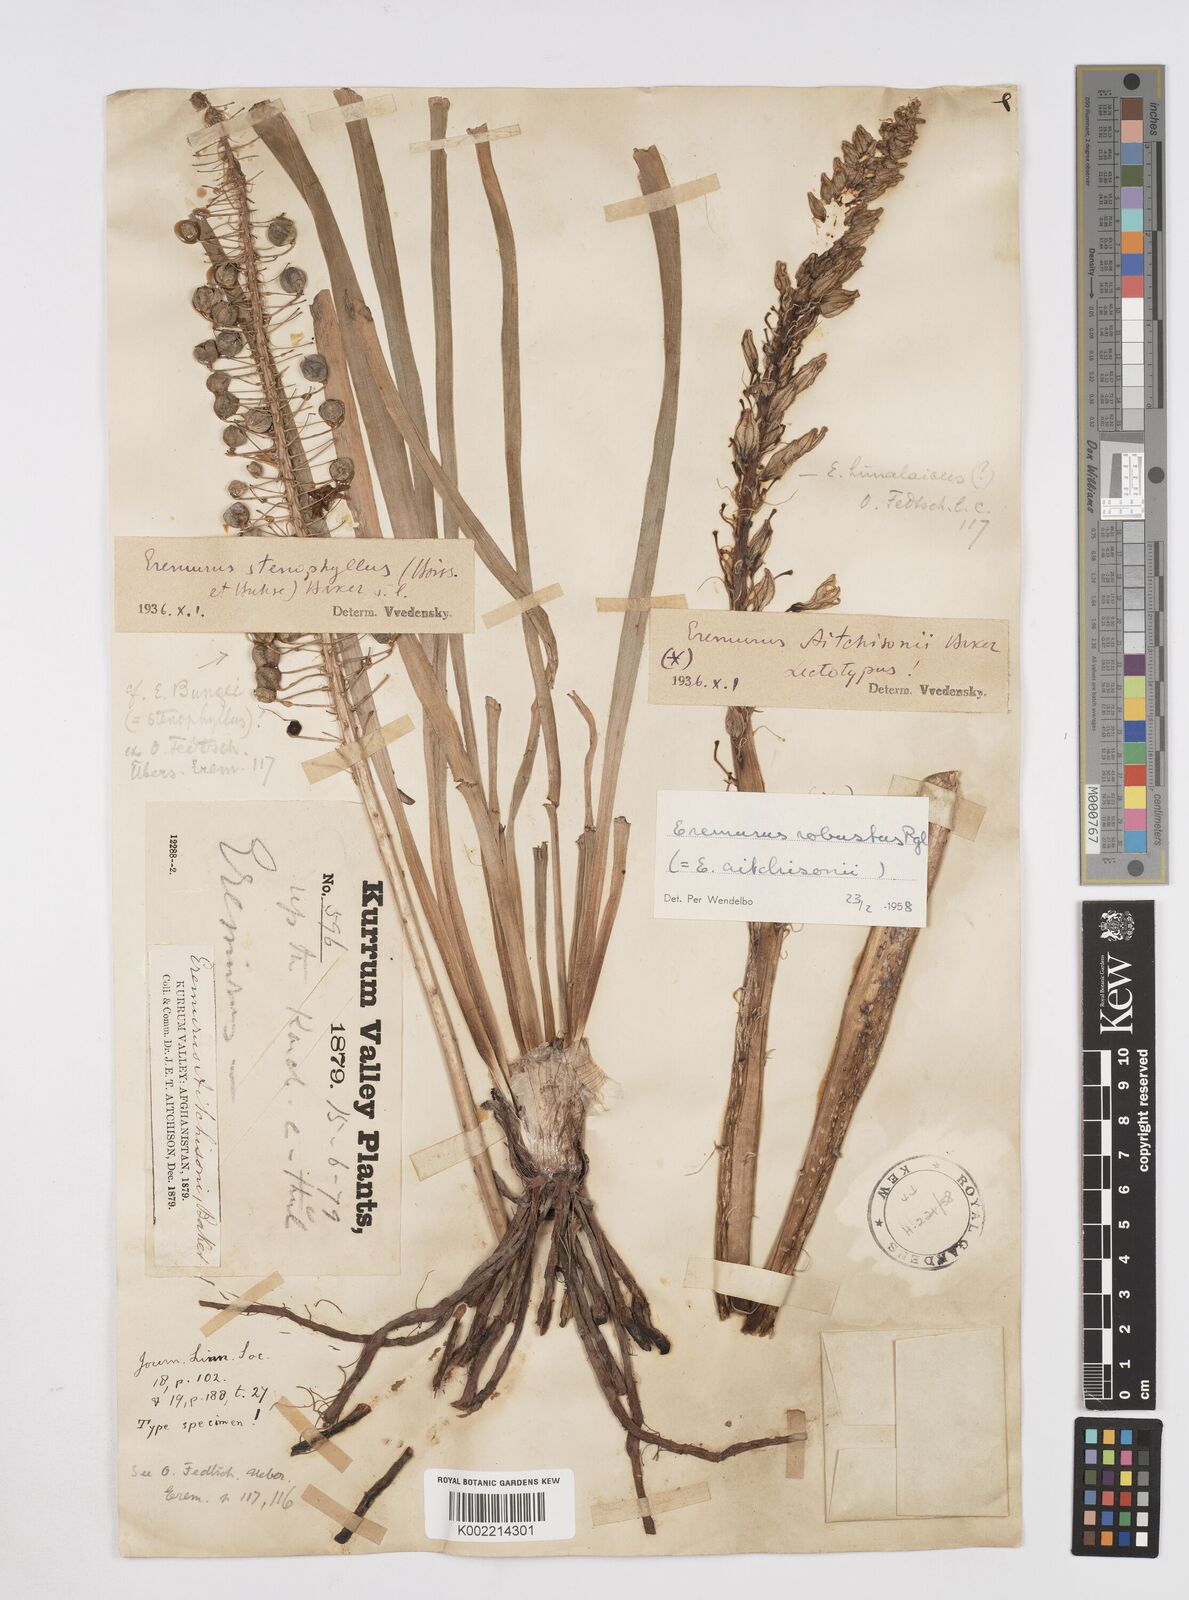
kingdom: Plantae
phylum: Tracheophyta
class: Liliopsida
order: Asparagales
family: Asphodelaceae
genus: Eremurus
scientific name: Eremurus aitchisonii
